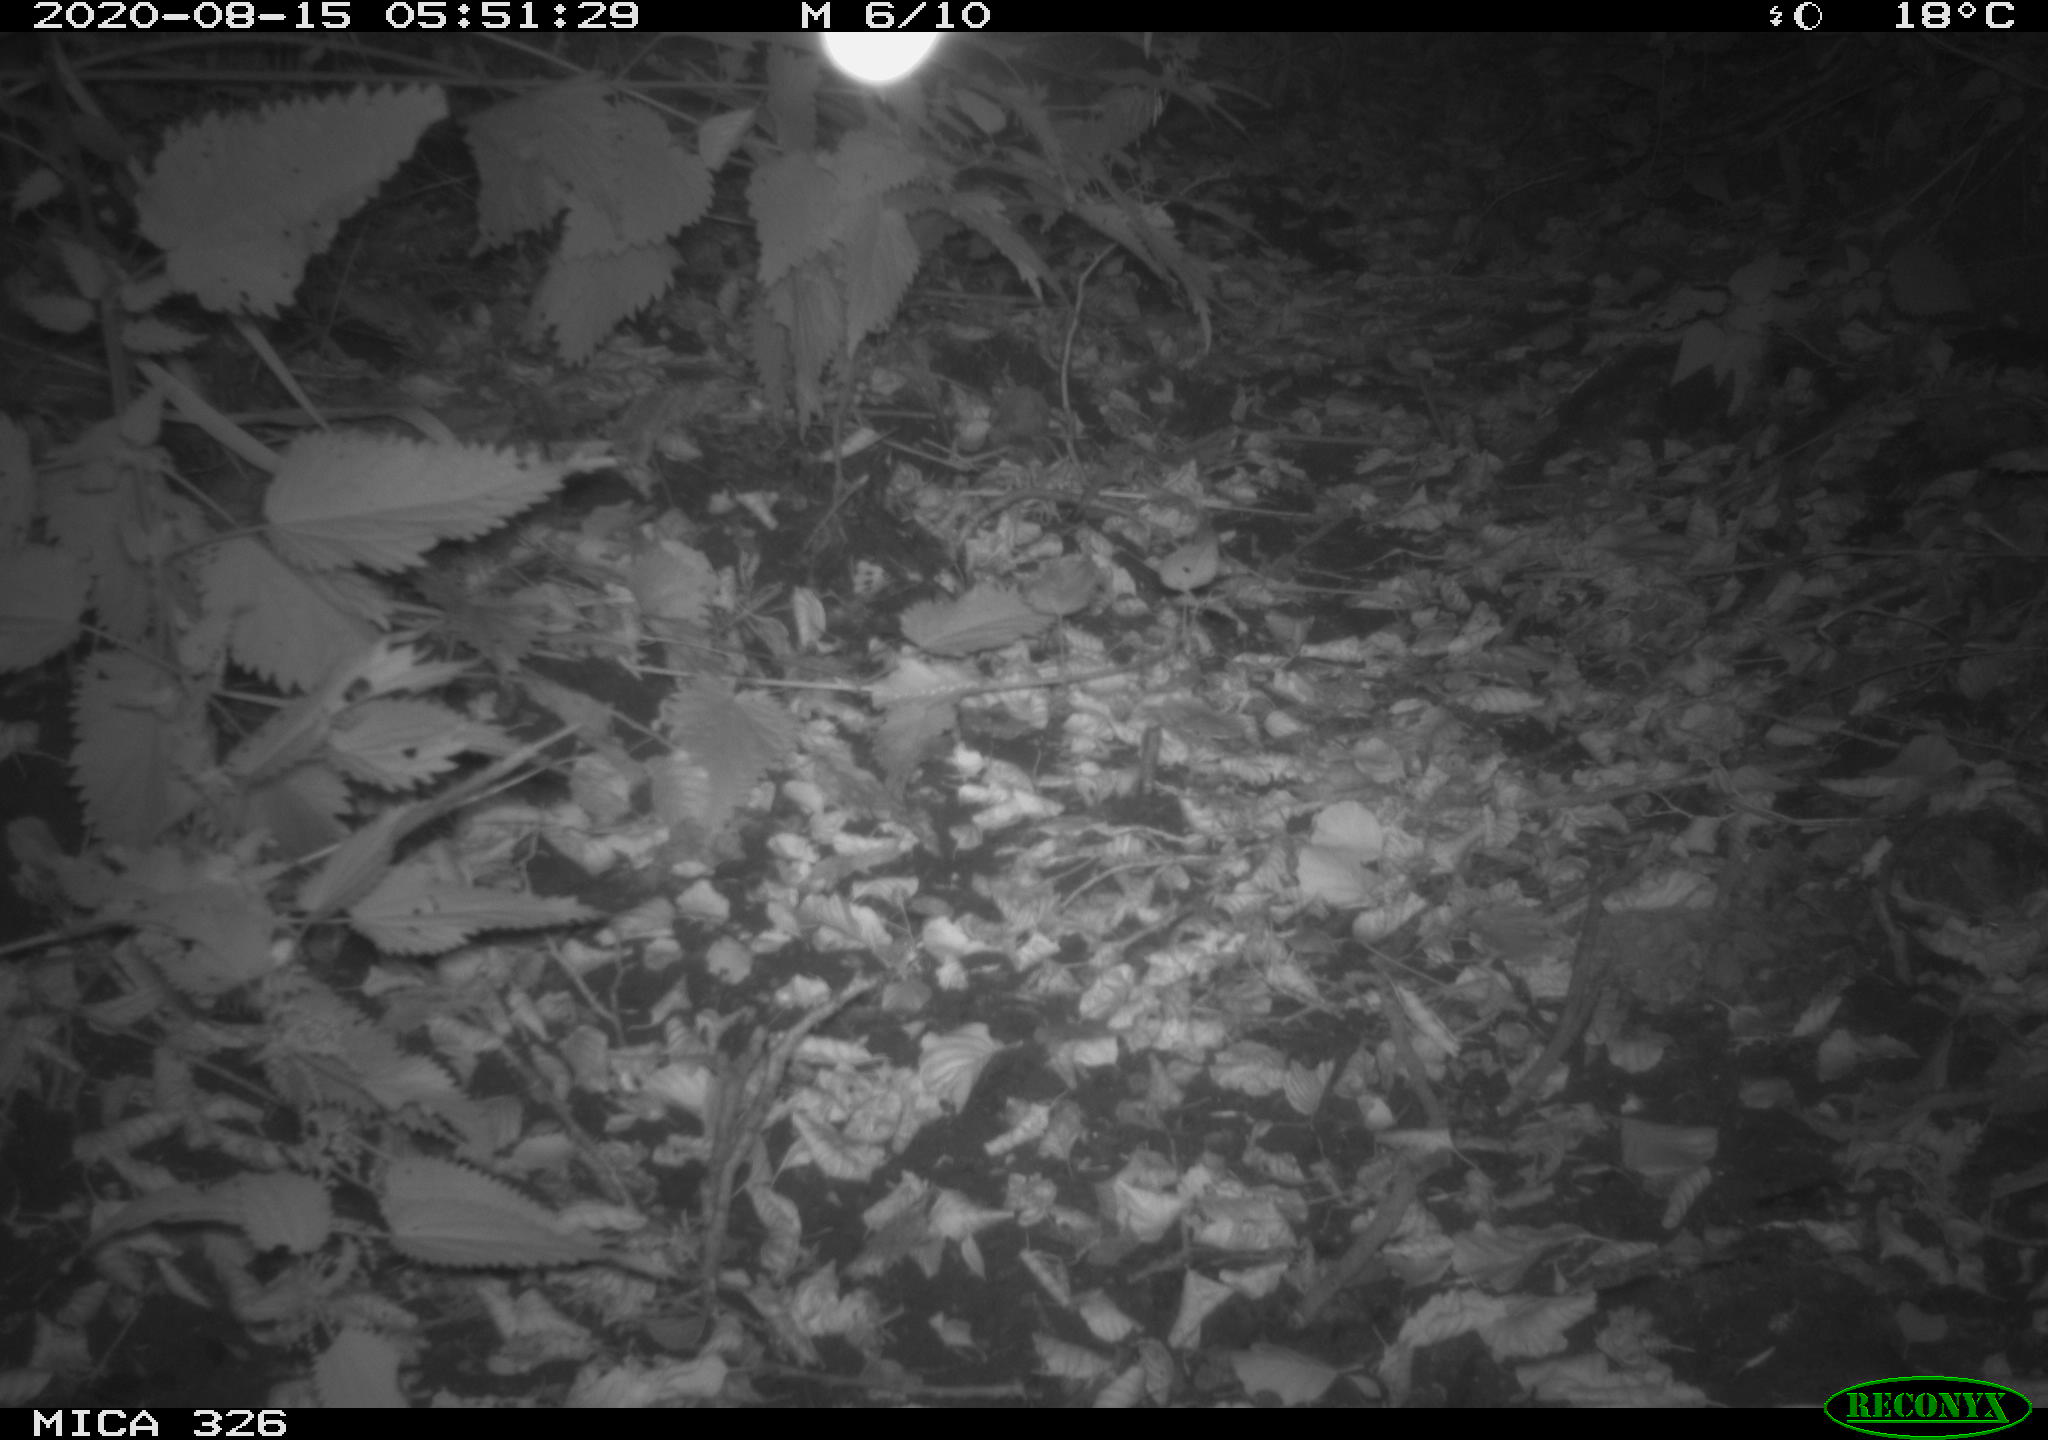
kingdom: Animalia
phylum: Chordata
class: Mammalia
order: Rodentia
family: Muridae
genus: Rattus
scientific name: Rattus norvegicus
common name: Brown rat
